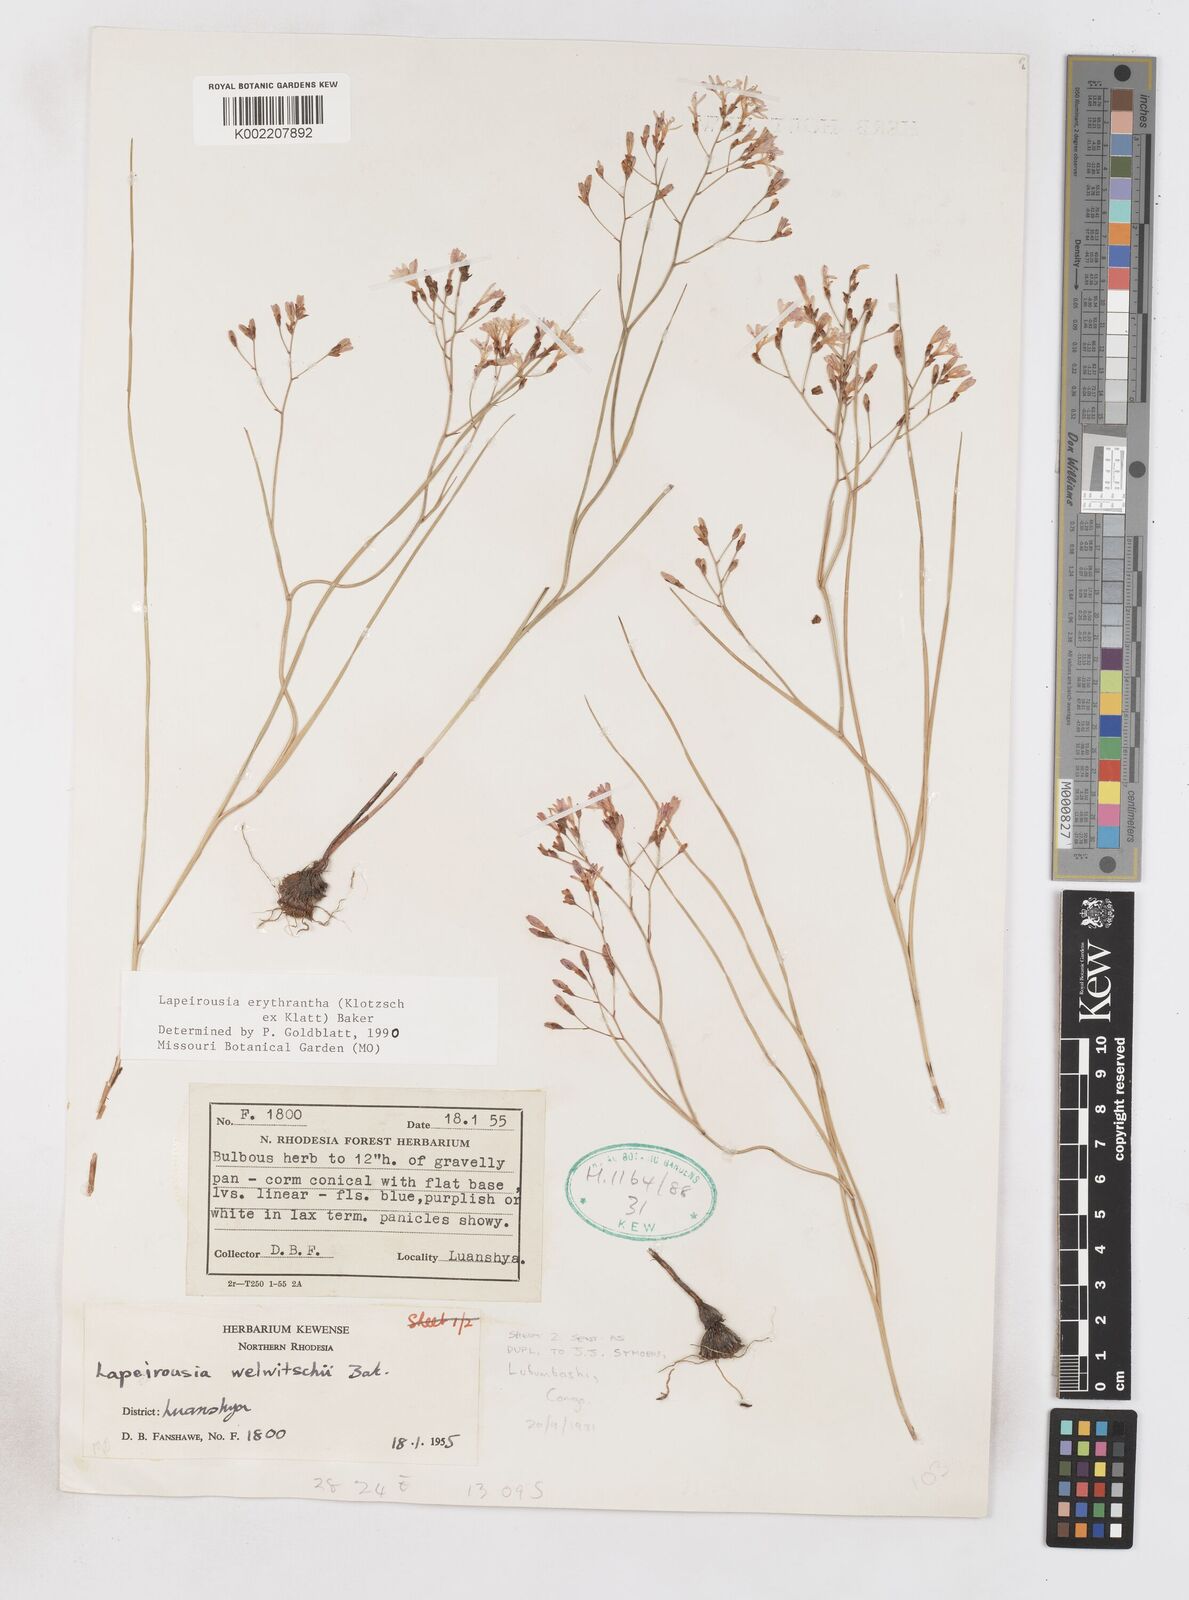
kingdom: Plantae
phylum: Tracheophyta
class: Liliopsida
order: Asparagales
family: Iridaceae
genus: Afrosolen
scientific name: Afrosolen erythranthus
